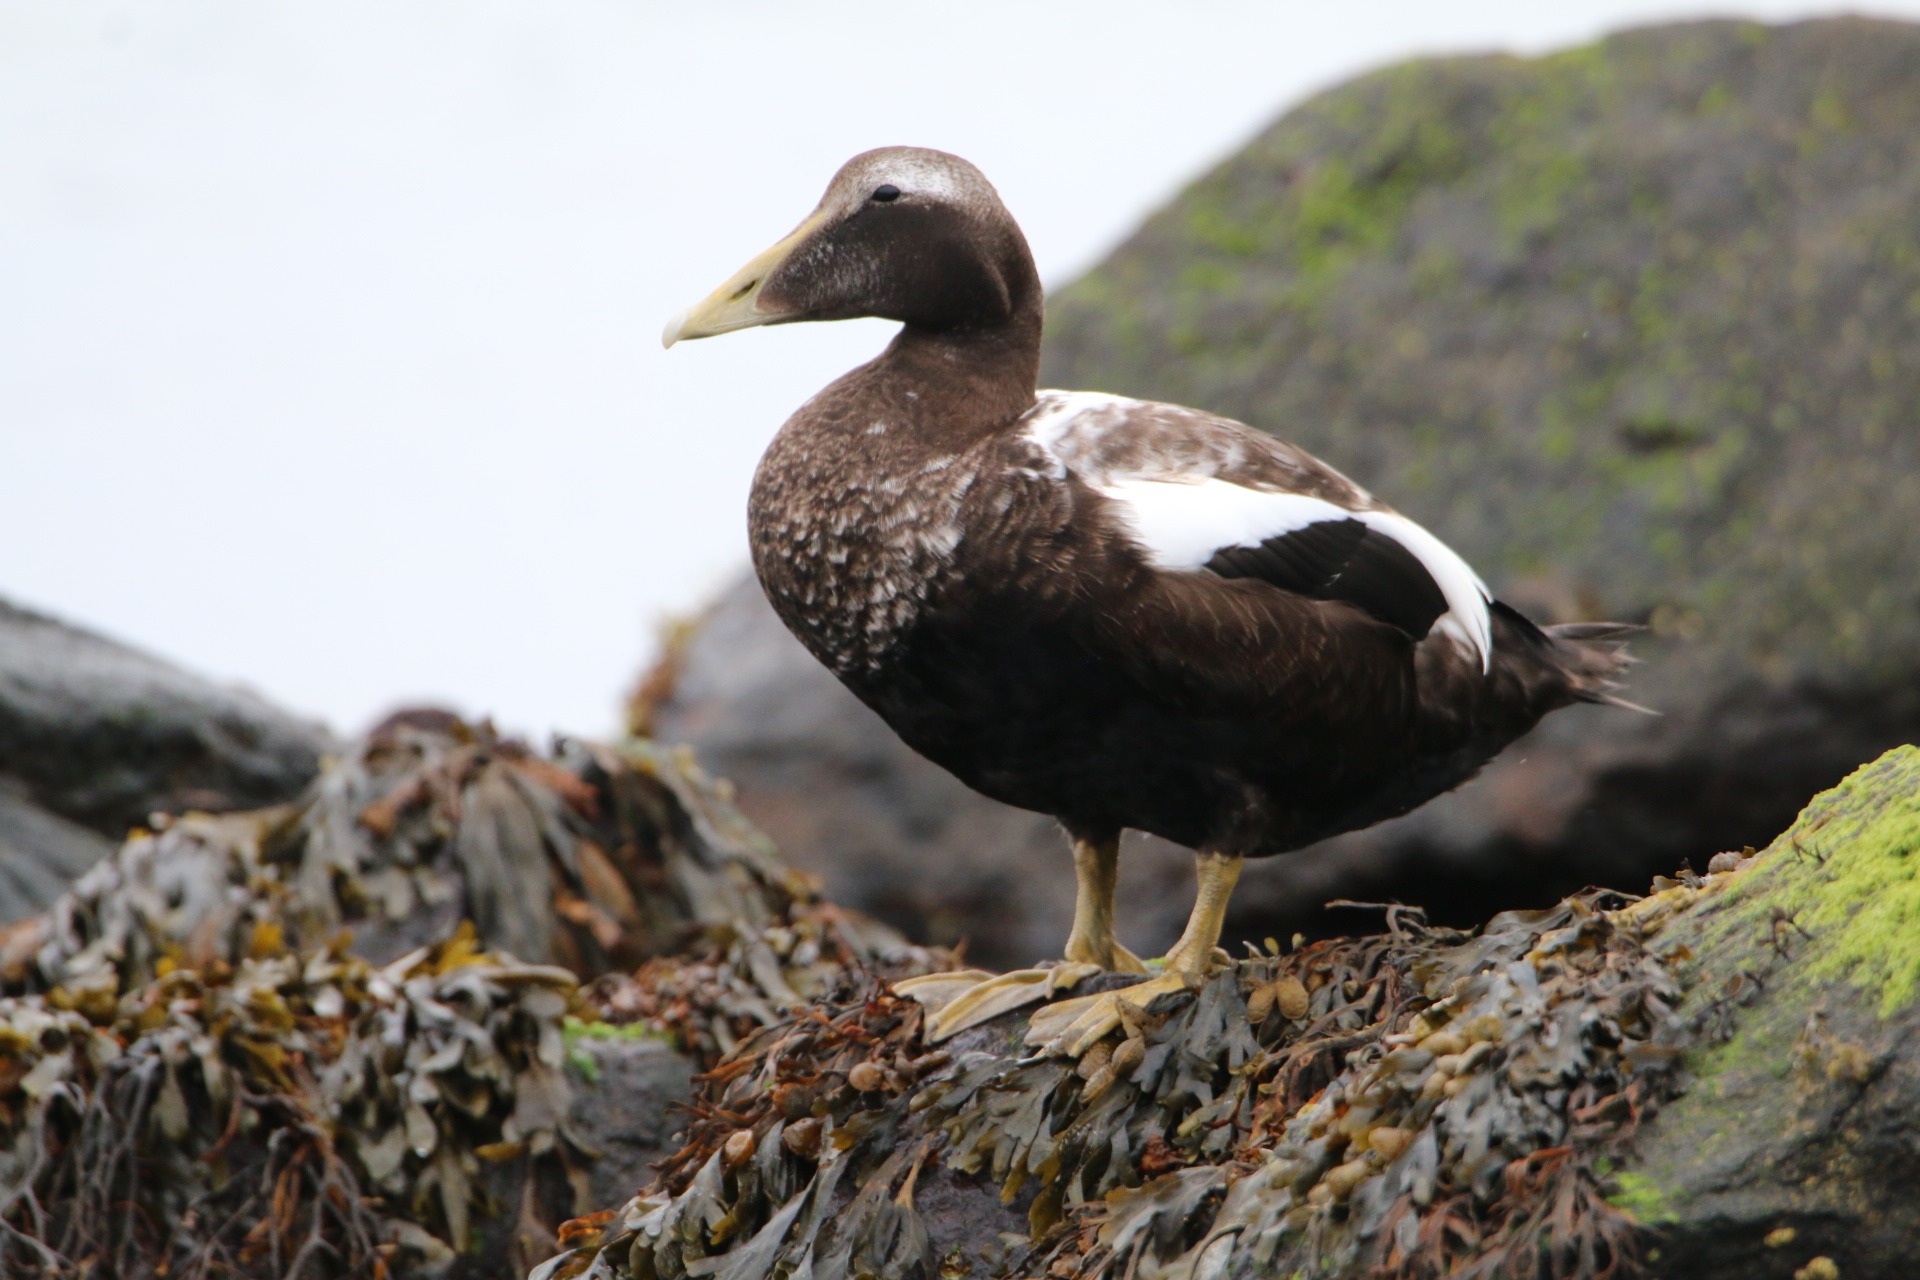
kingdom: Animalia
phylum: Chordata
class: Aves
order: Anseriformes
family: Anatidae
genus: Somateria
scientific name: Somateria mollissima
